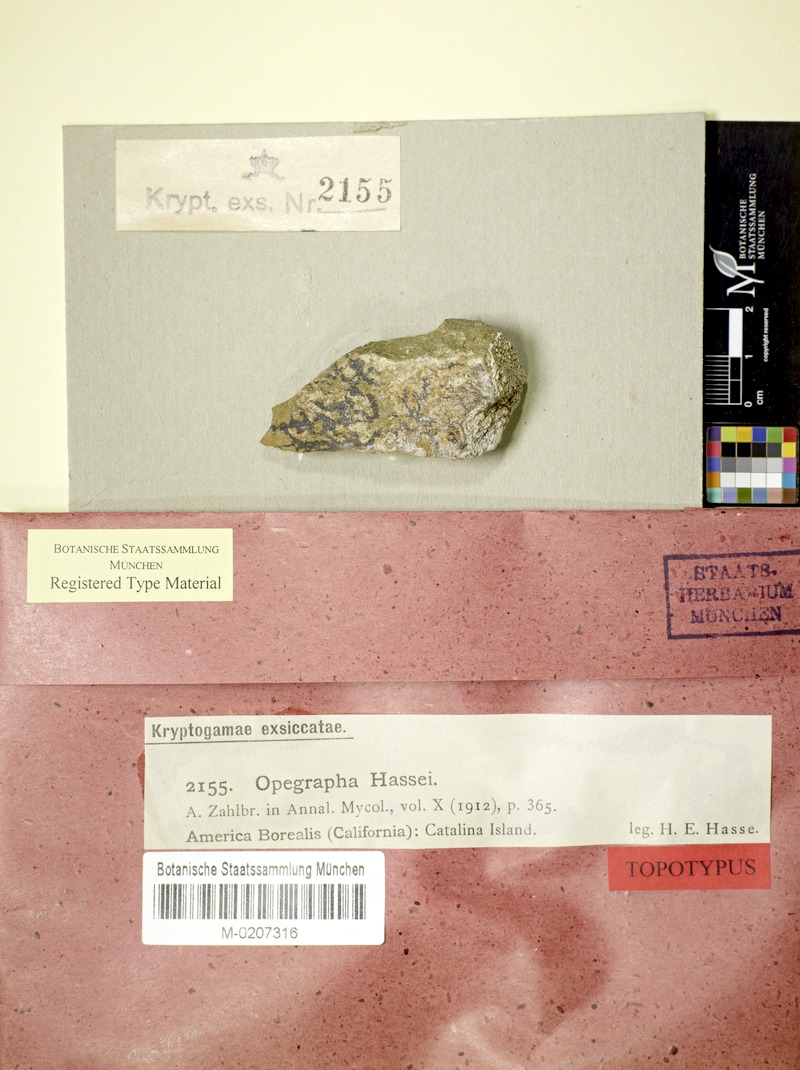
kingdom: Fungi
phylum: Ascomycota
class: Arthoniomycetes
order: Arthoniales
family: Lecanographaceae
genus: Lecanographa
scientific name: Lecanographa hypothallina
